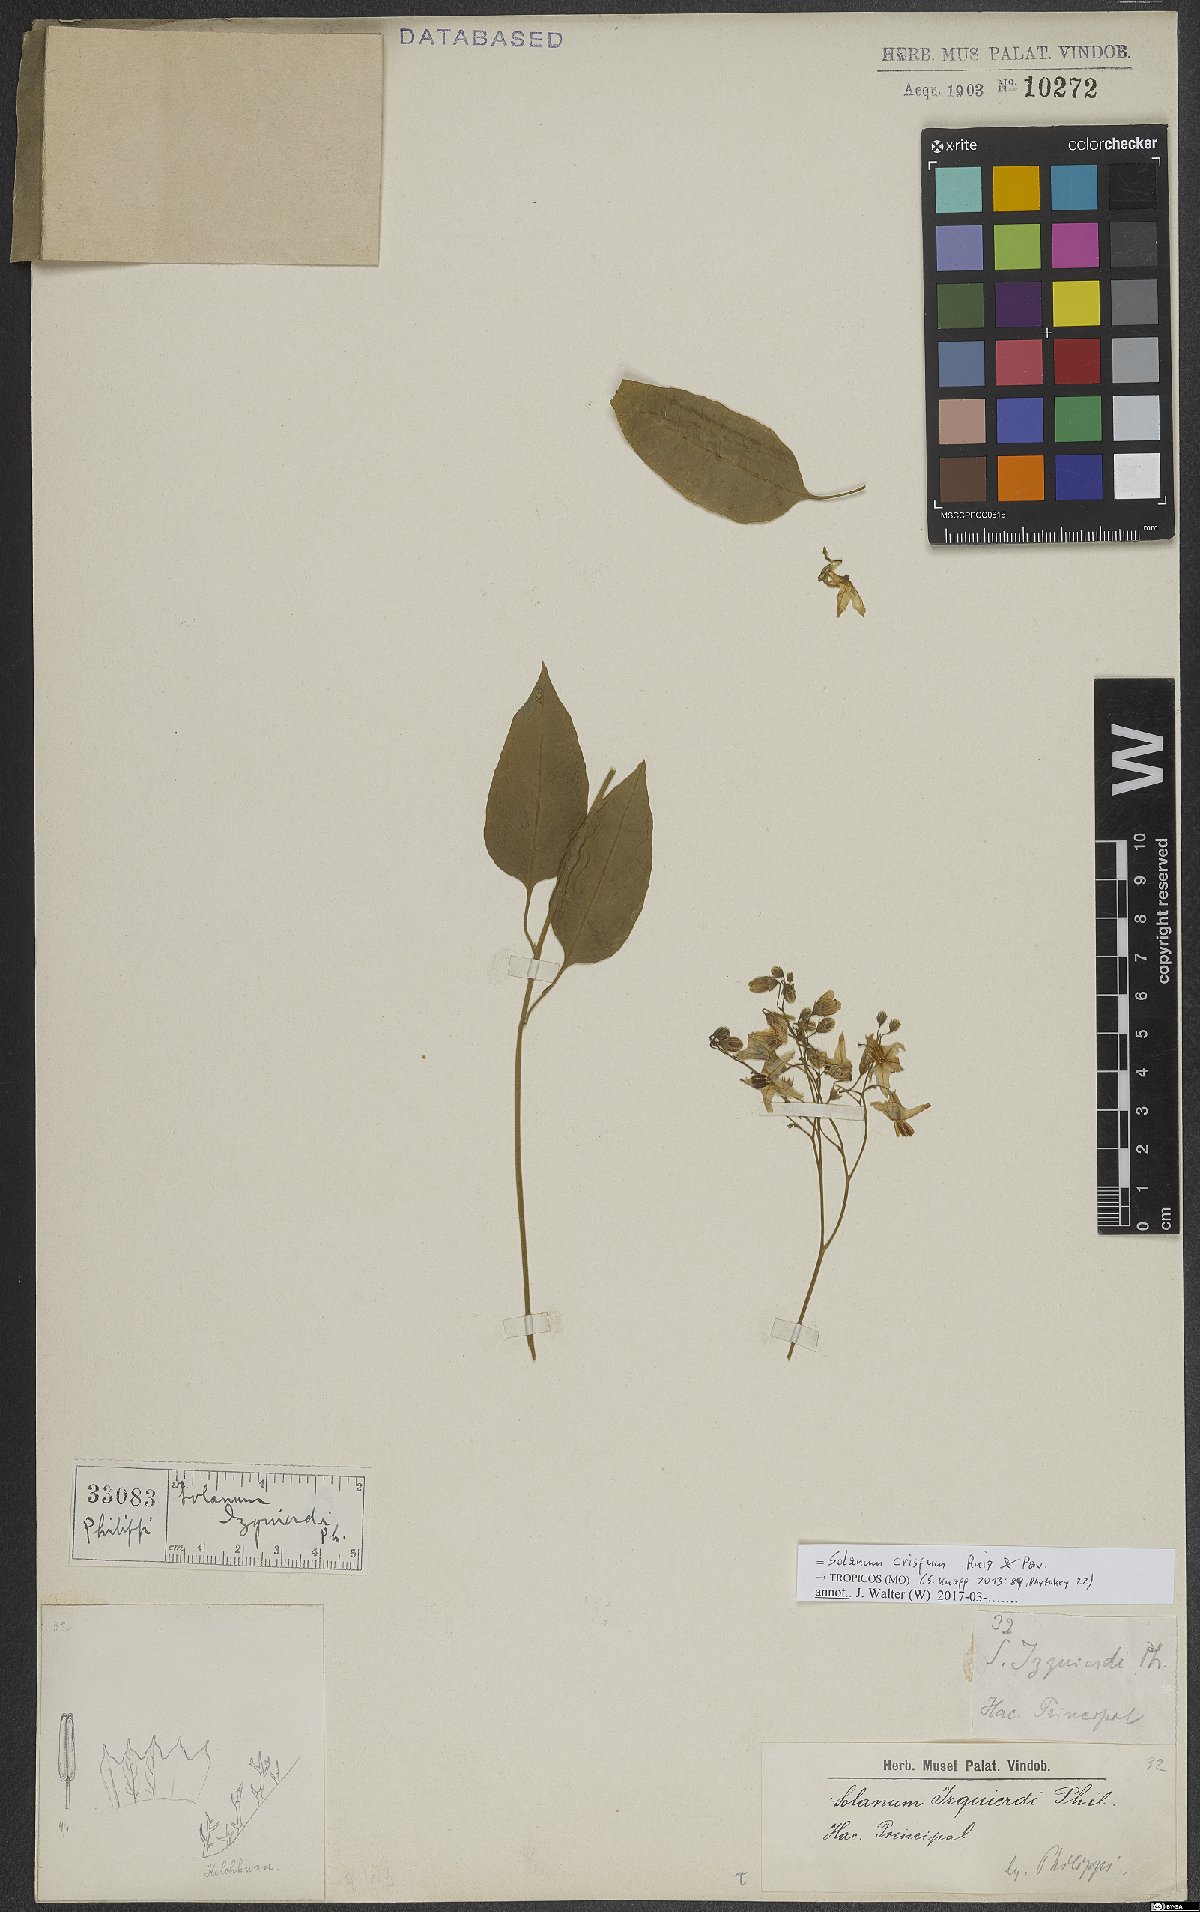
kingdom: Plantae
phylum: Tracheophyta
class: Magnoliopsida
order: Solanales
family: Solanaceae
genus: Solanum
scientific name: Solanum crispum
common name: Chilean nightshade
